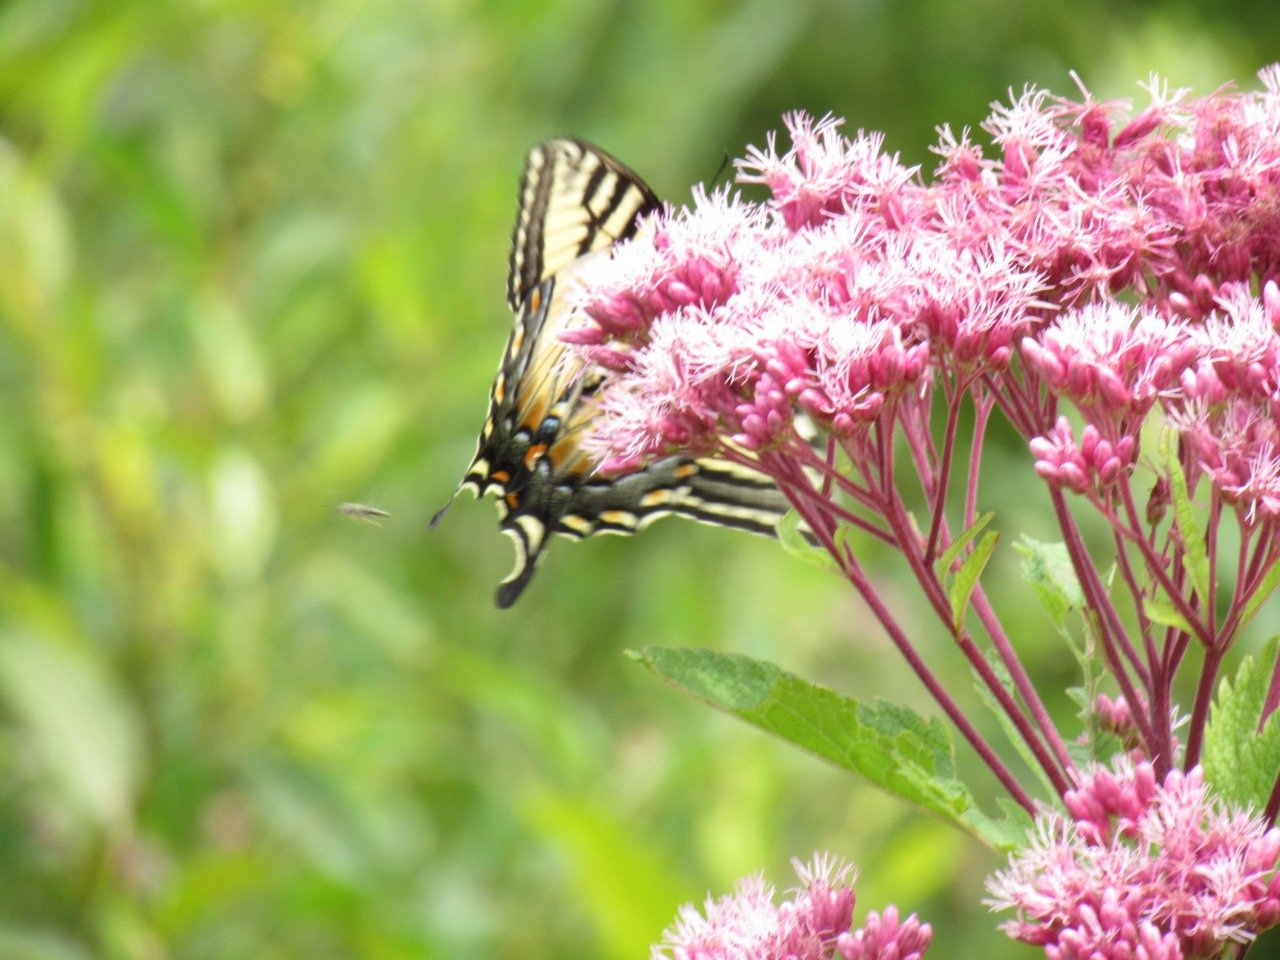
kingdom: Animalia
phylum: Arthropoda
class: Insecta
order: Lepidoptera
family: Papilionidae
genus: Pterourus
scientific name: Pterourus
